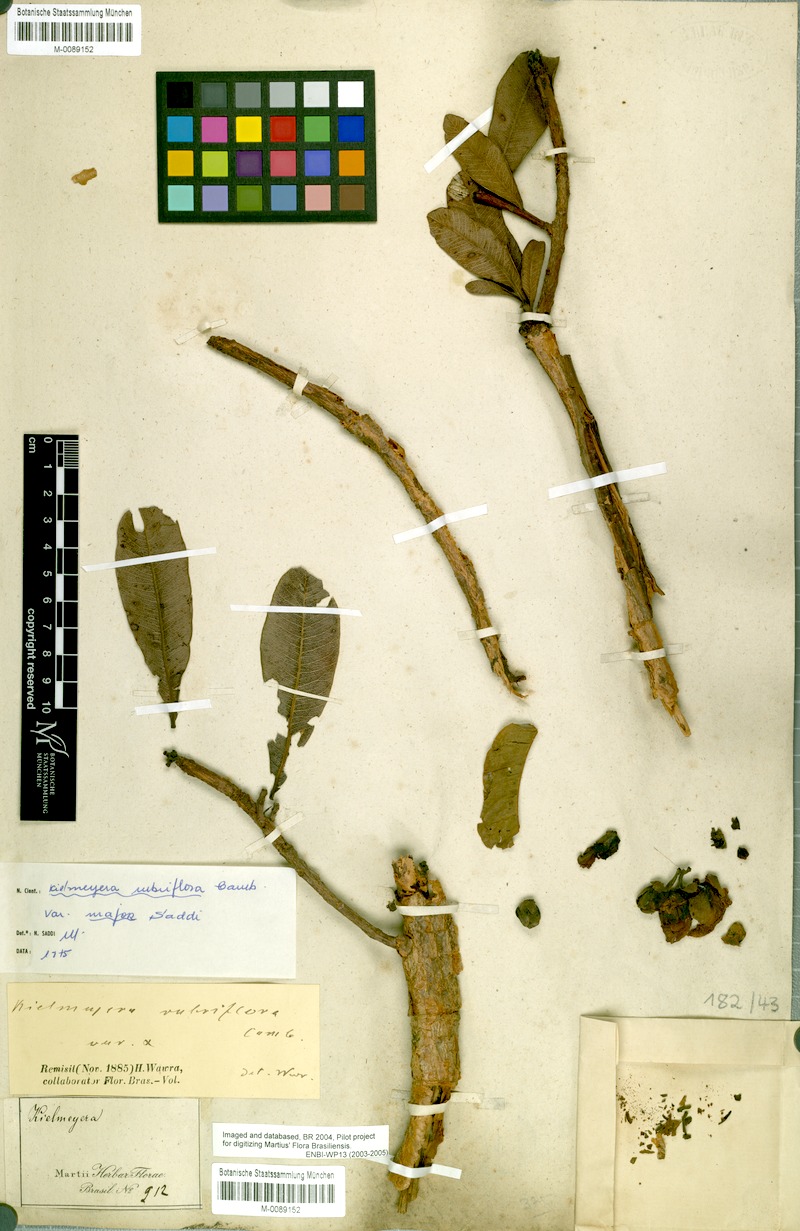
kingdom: Plantae
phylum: Tracheophyta
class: Magnoliopsida
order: Malpighiales
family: Calophyllaceae
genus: Kielmeyera
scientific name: Kielmeyera rubriflora
